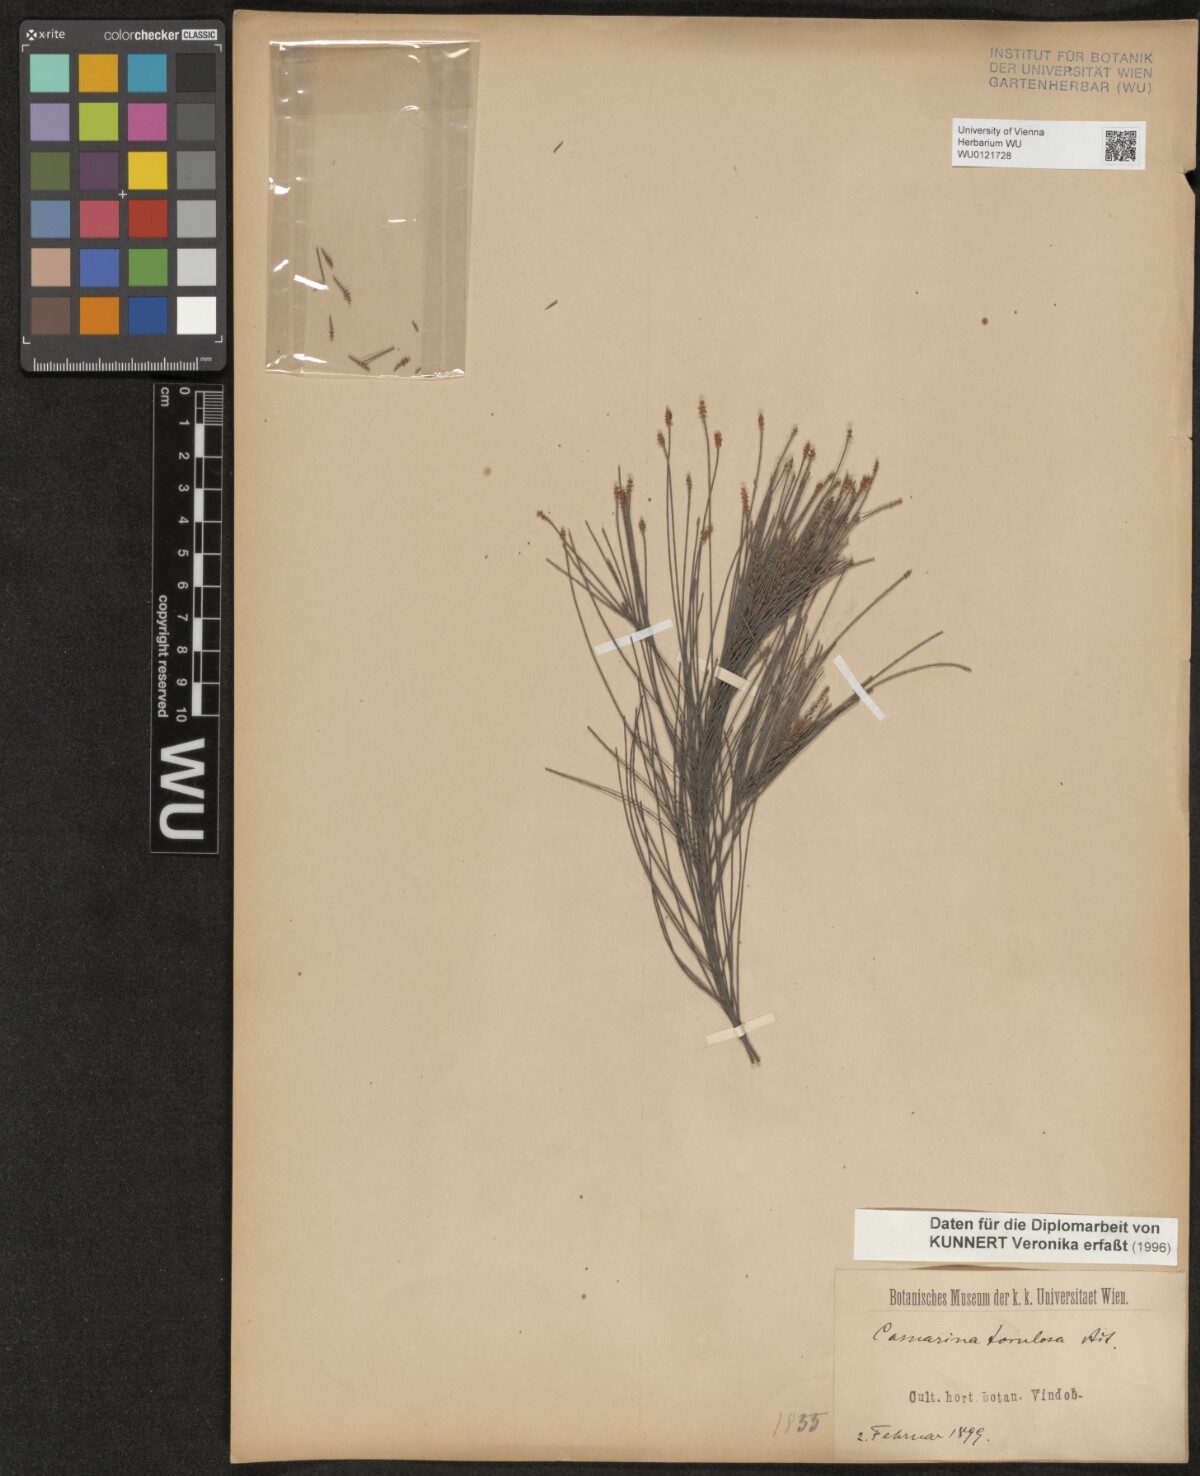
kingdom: Plantae
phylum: Tracheophyta
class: Magnoliopsida
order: Fagales
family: Casuarinaceae
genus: Allocasuarina
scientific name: Allocasuarina torulosa
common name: Forest-oak
